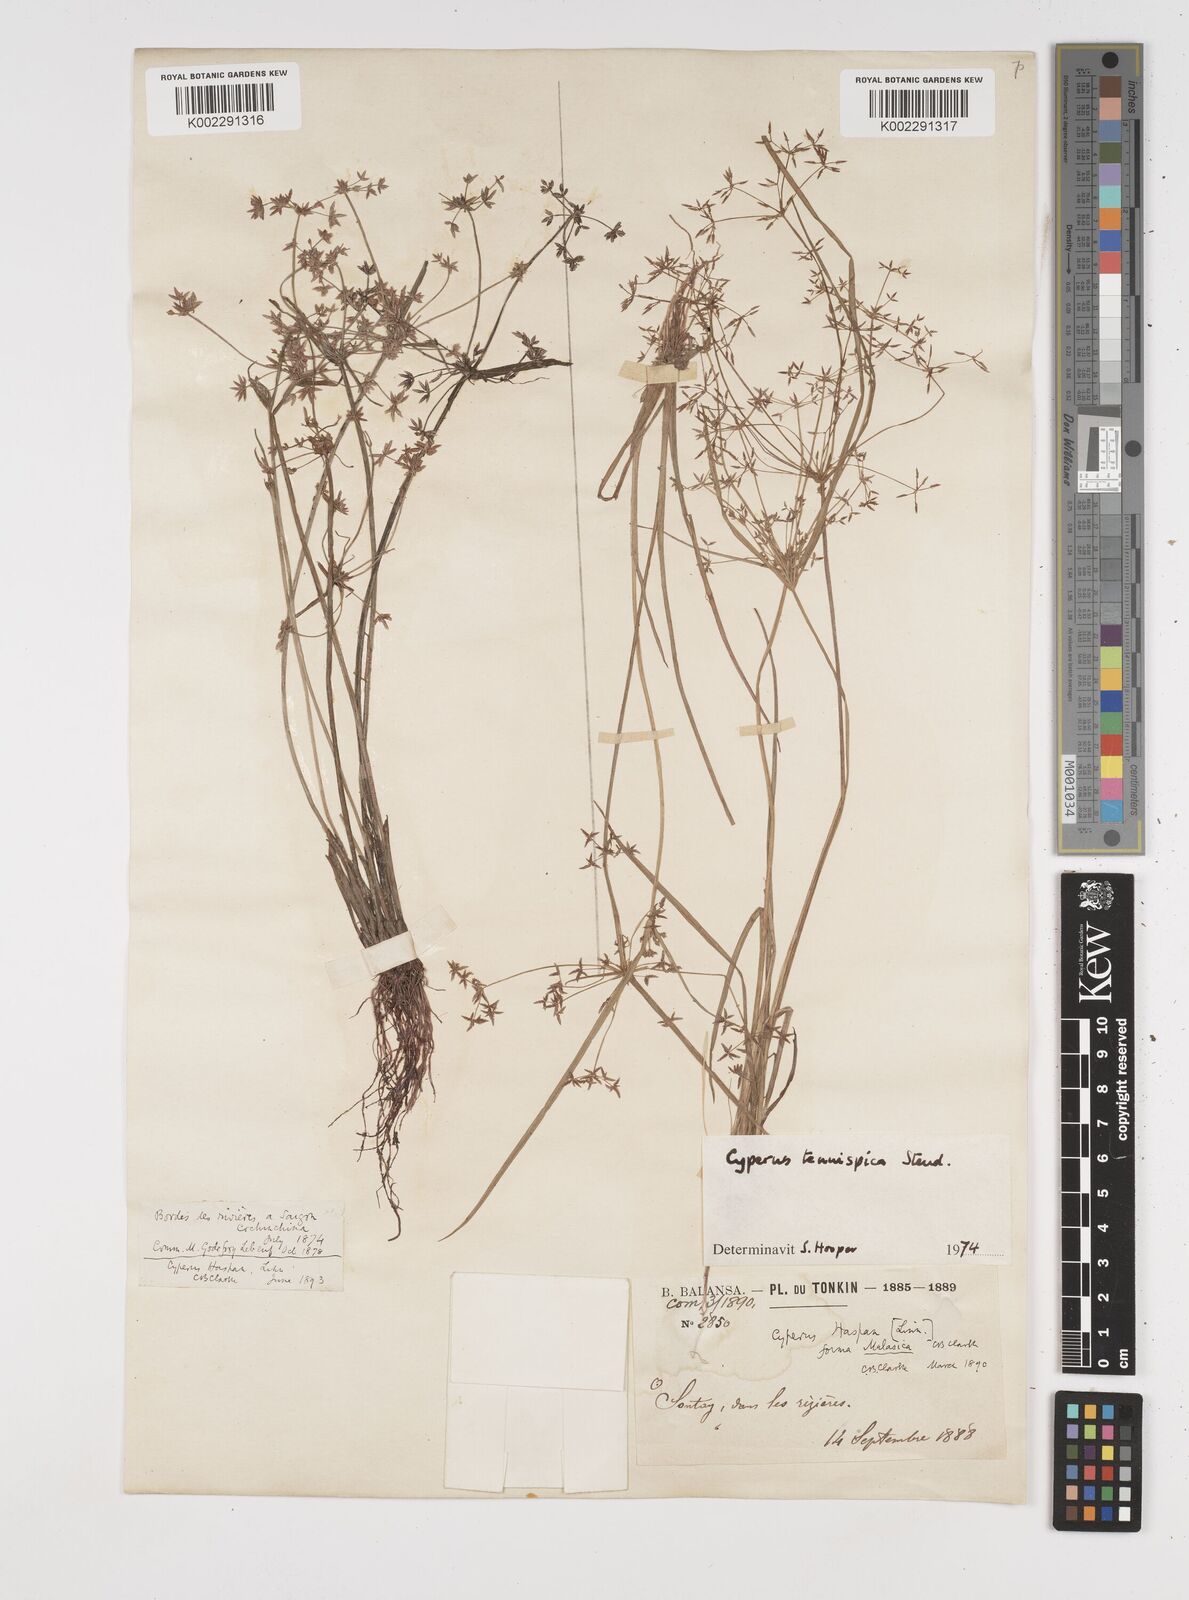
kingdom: Plantae
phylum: Tracheophyta
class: Liliopsida
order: Poales
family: Cyperaceae
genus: Cyperus
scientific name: Cyperus tenuispica
